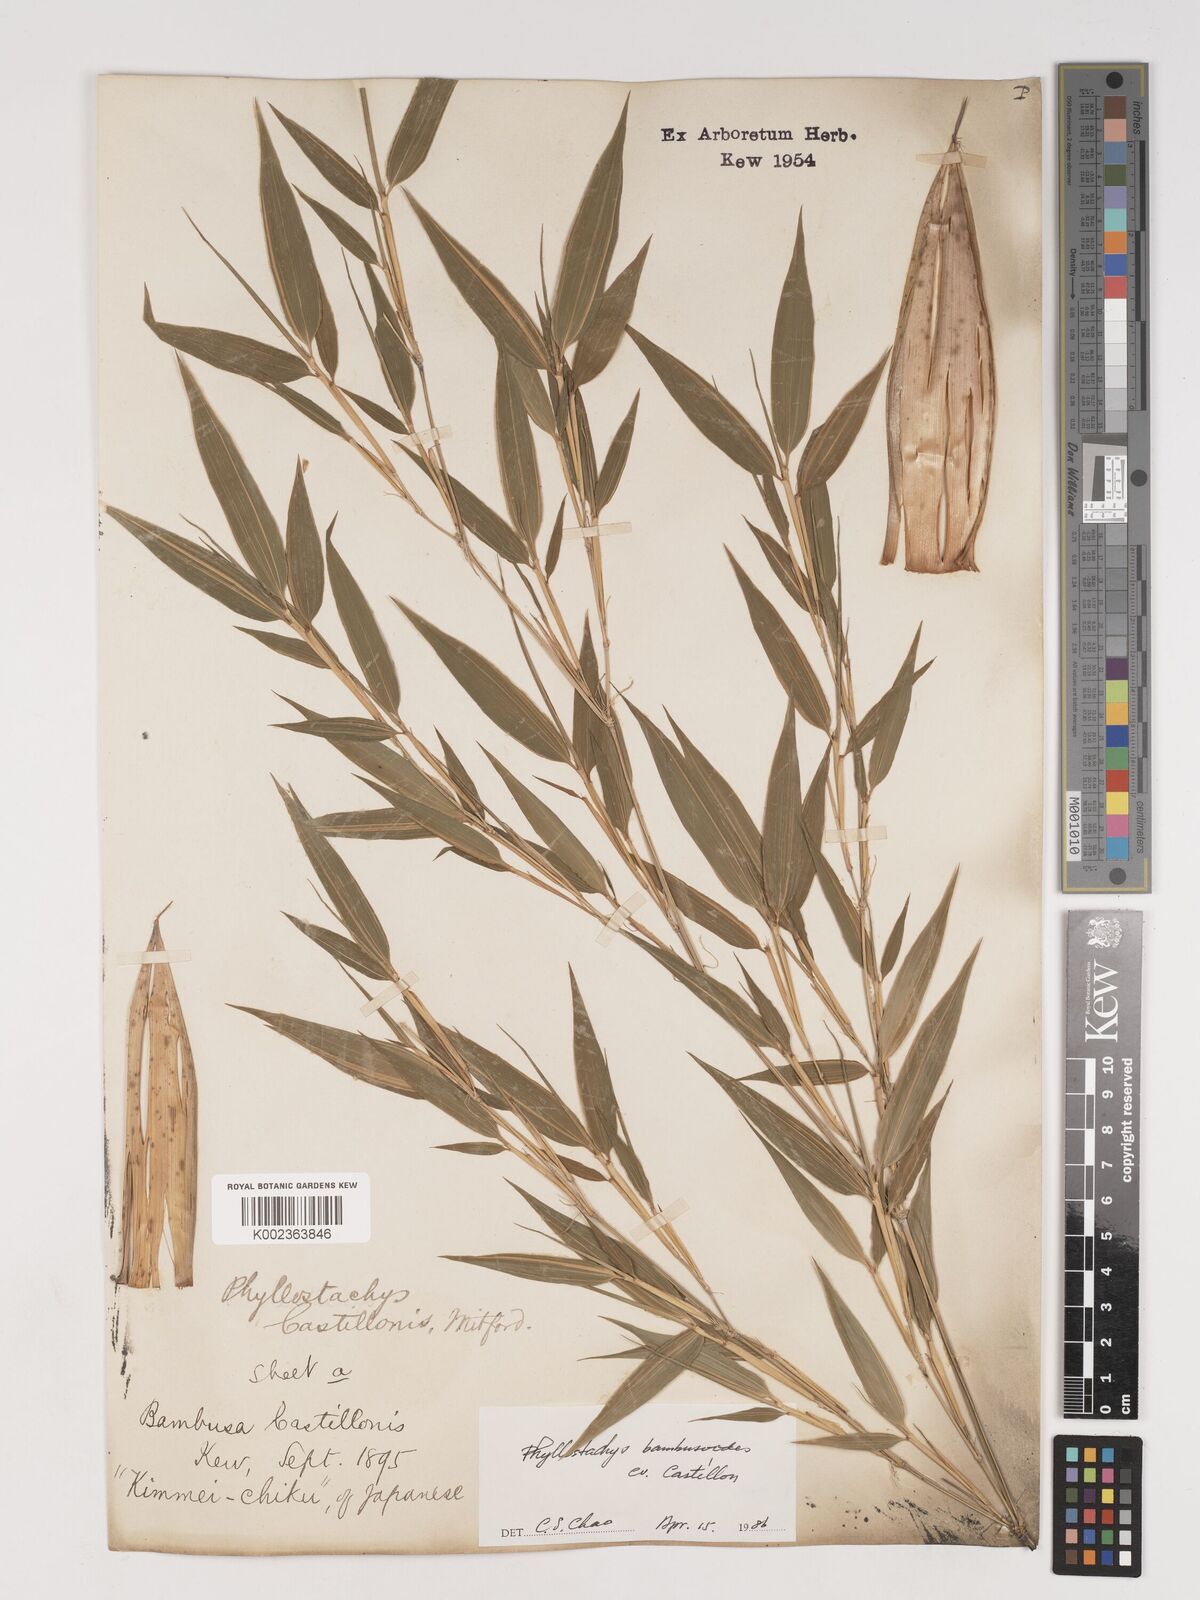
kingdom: Plantae
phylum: Tracheophyta
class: Liliopsida
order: Poales
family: Poaceae
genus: Phyllostachys
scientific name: Phyllostachys reticulata
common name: Bamboo
